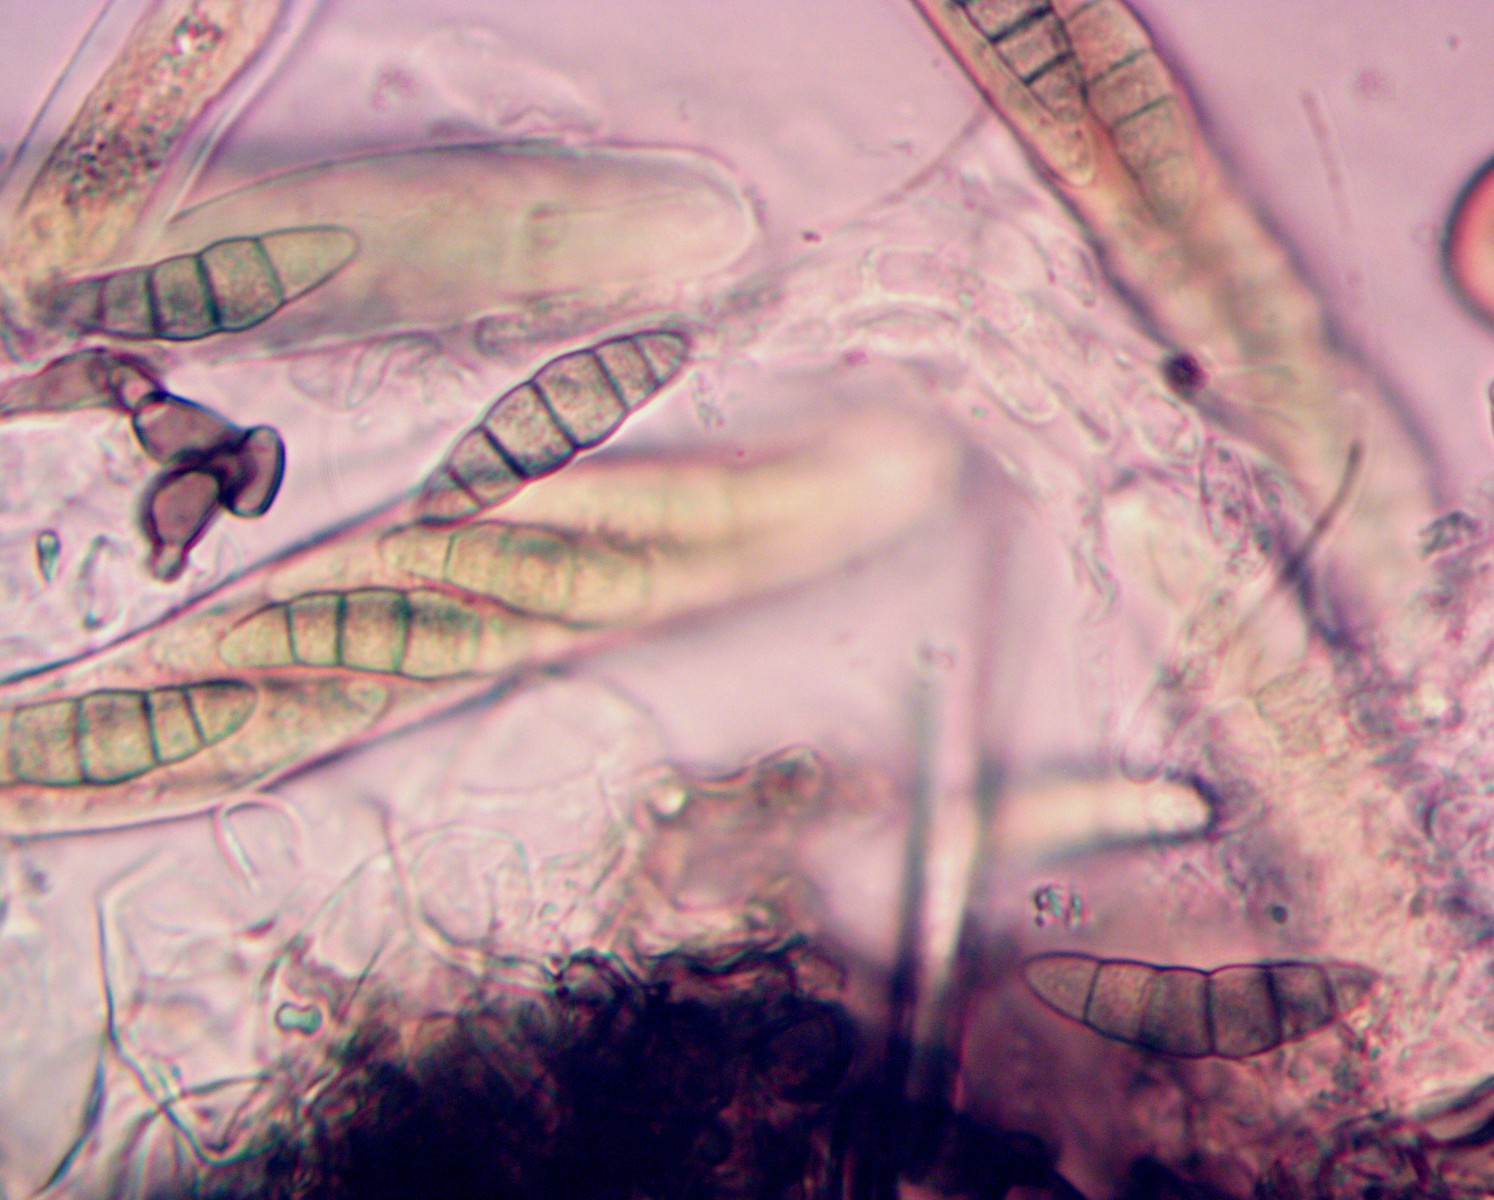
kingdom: Fungi
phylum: Ascomycota
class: Dothideomycetes
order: Pleosporales
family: Lophiostomataceae
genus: Sigarispora
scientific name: Sigarispora caulium
